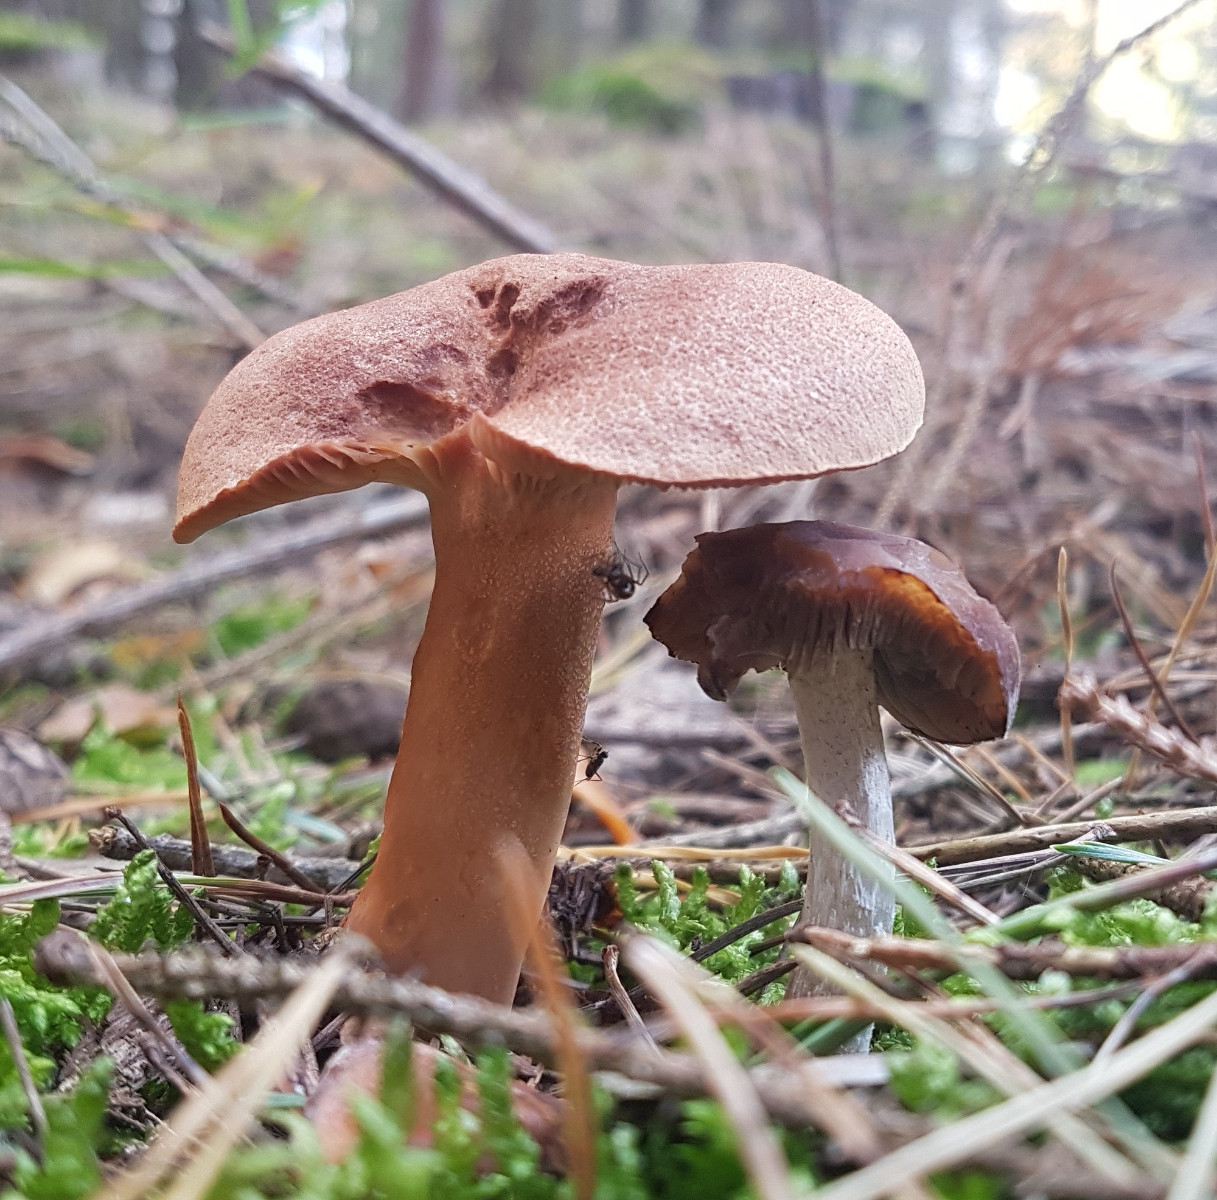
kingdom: Fungi
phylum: Basidiomycota
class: Agaricomycetes
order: Russulales
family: Russulaceae
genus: Lactarius
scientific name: Lactarius helvus
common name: mose-mælkehat
